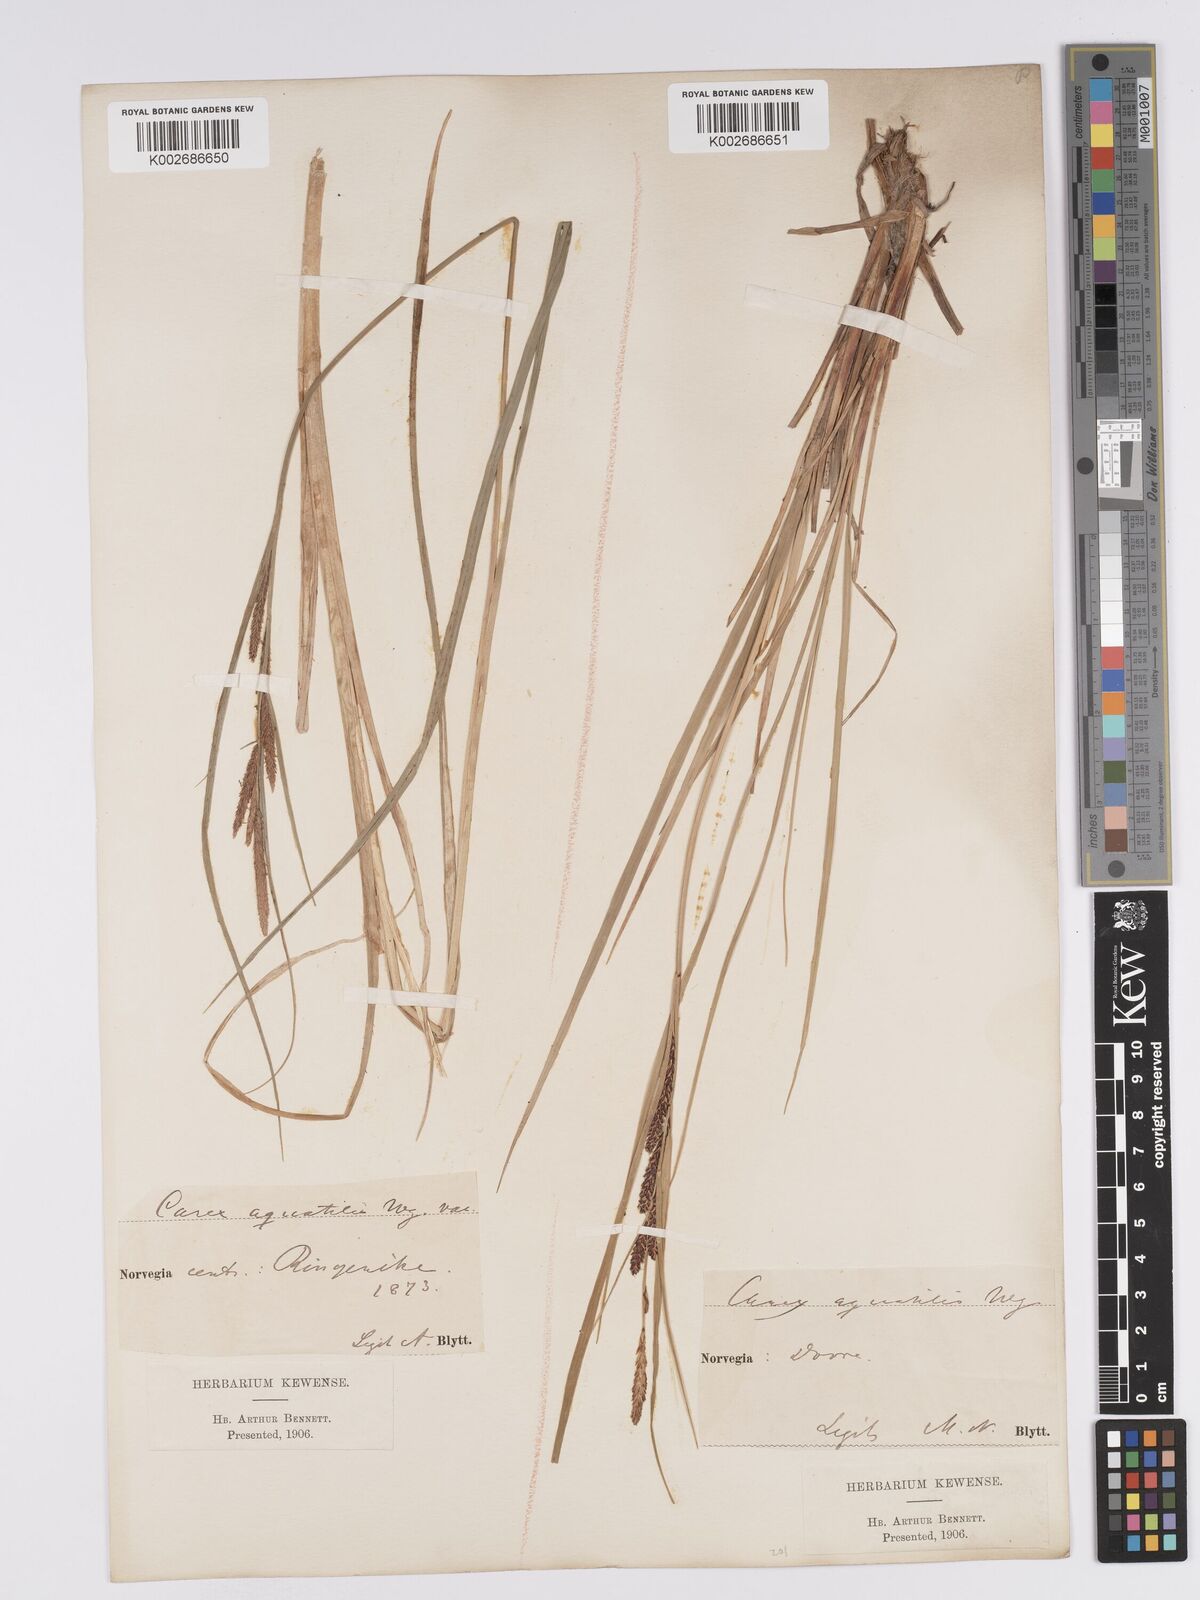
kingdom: Plantae
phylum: Tracheophyta
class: Liliopsida
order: Poales
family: Cyperaceae
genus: Carex
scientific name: Carex aquatilis
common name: Water sedge
